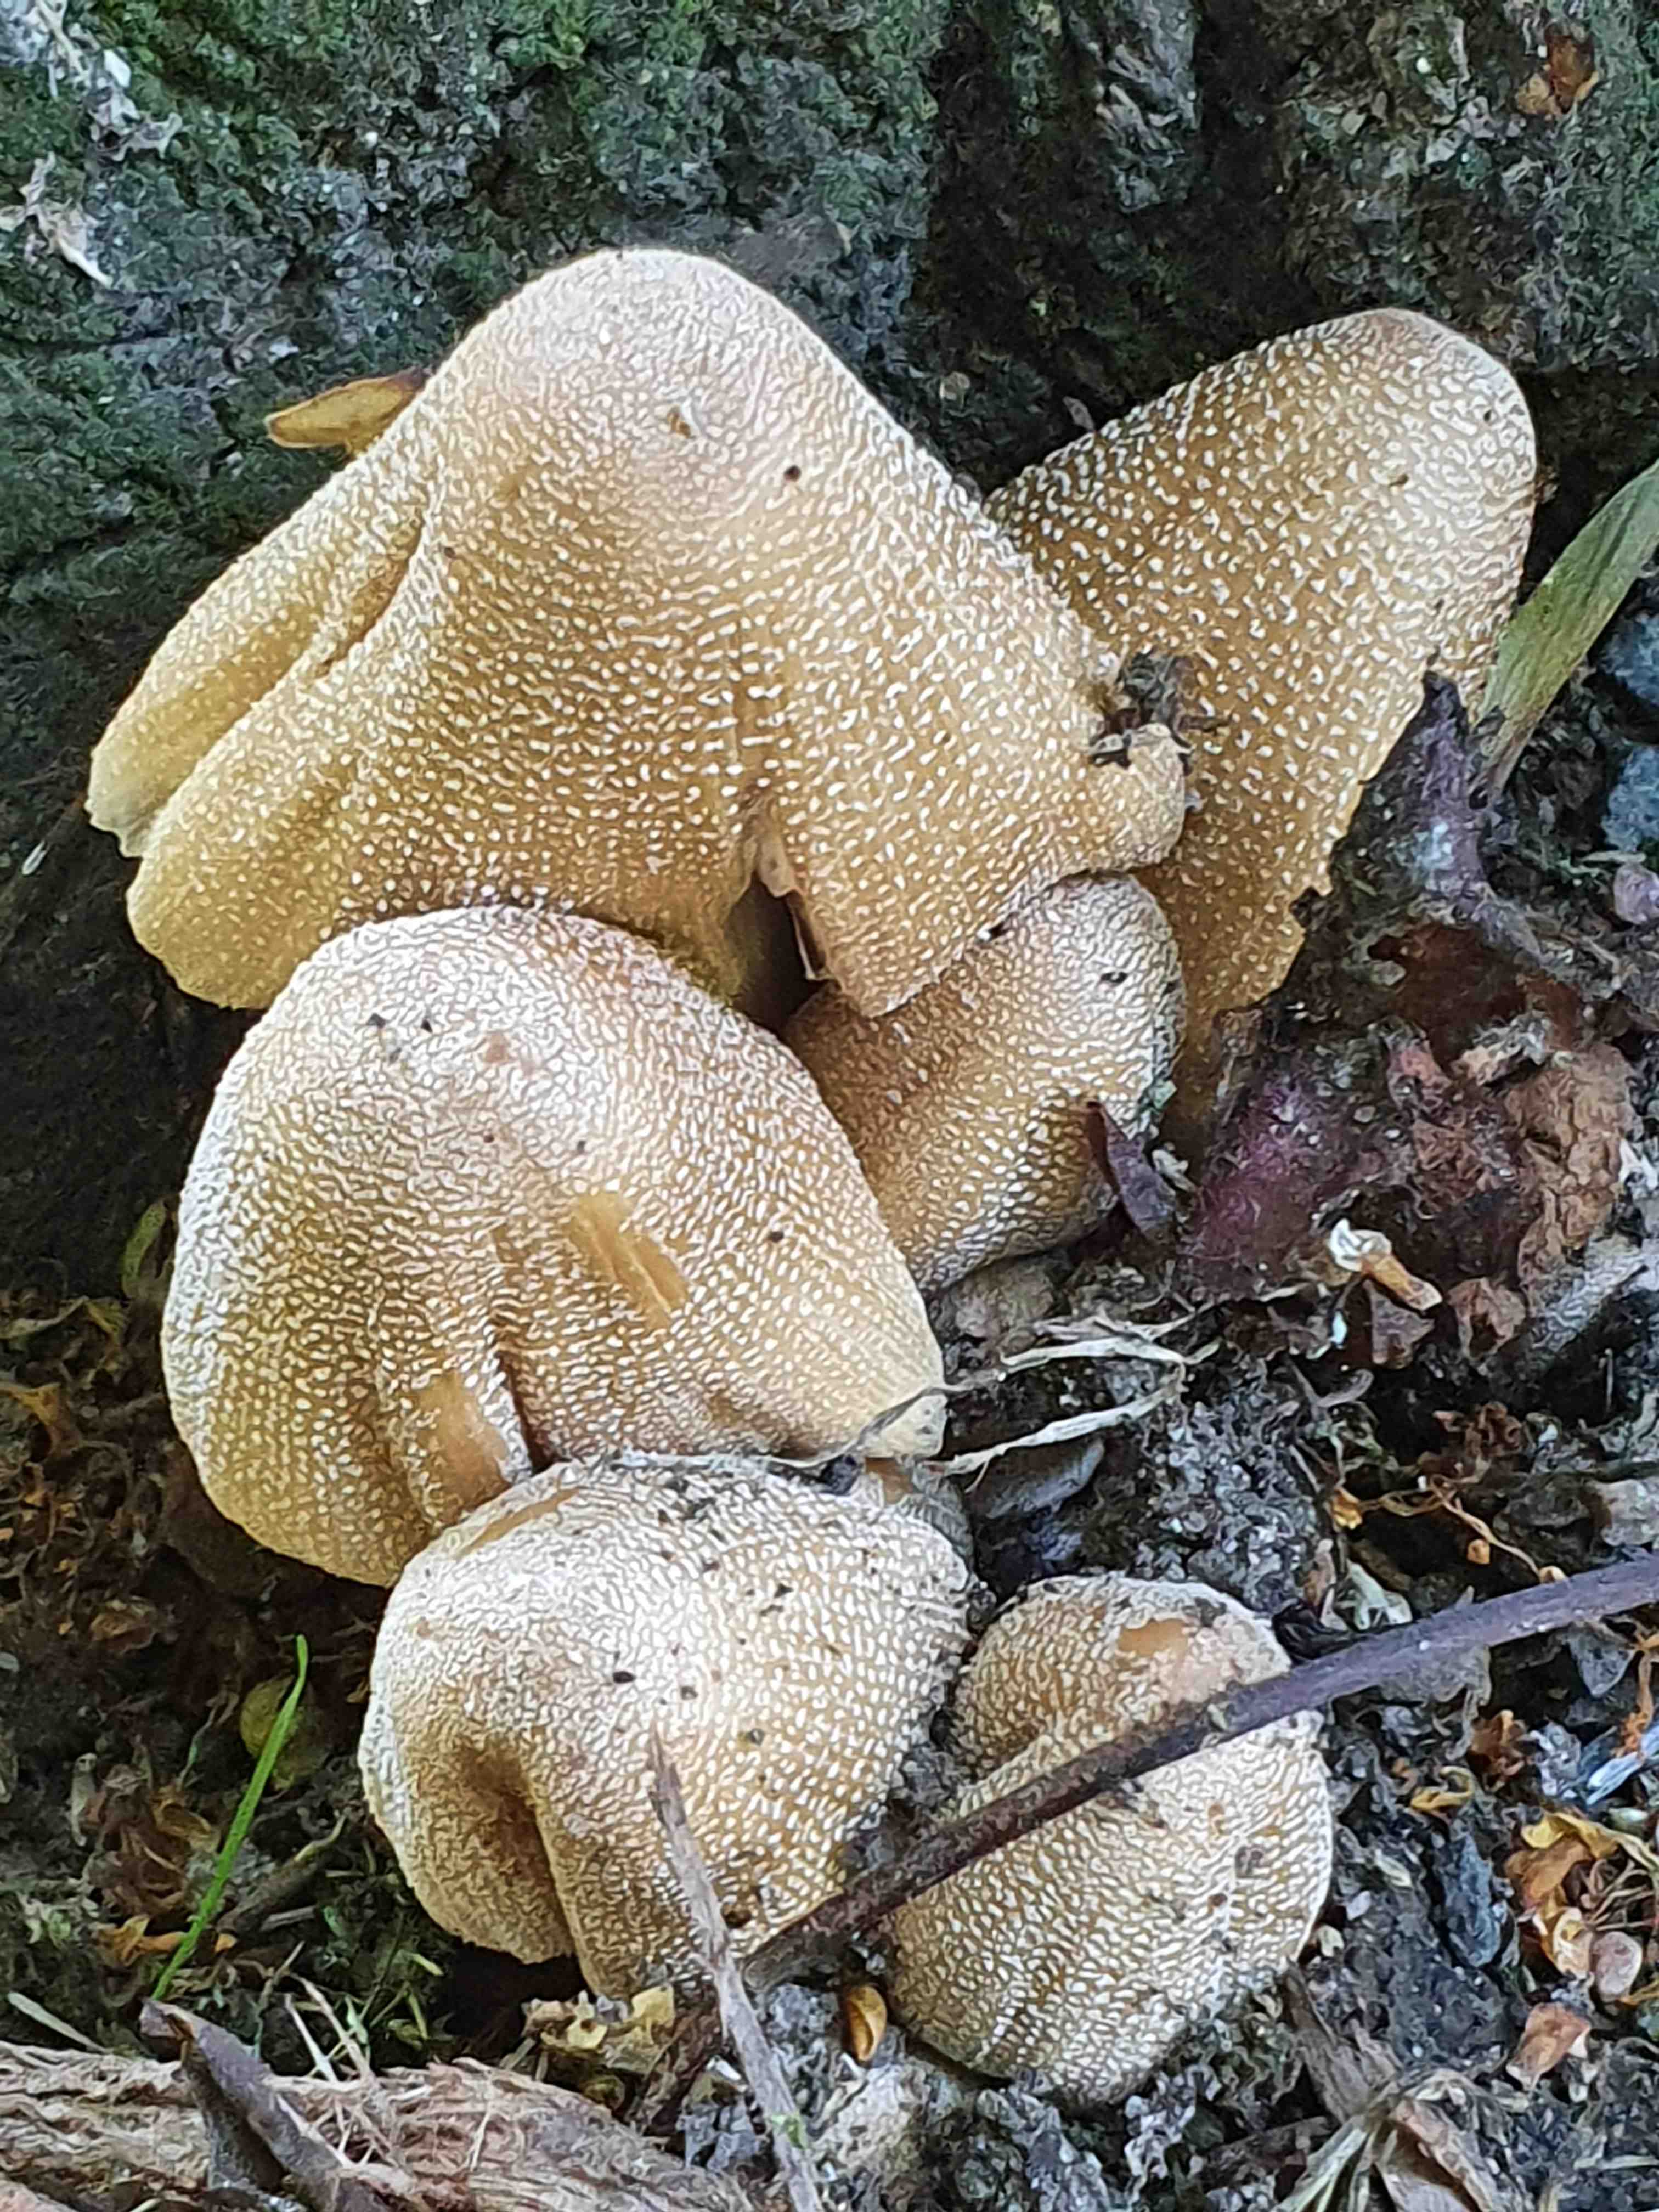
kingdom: Fungi
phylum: Basidiomycota
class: Agaricomycetes
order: Agaricales
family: Psathyrellaceae
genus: Coprinellus
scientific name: Coprinellus micaceus
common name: glimmer-blækhat
